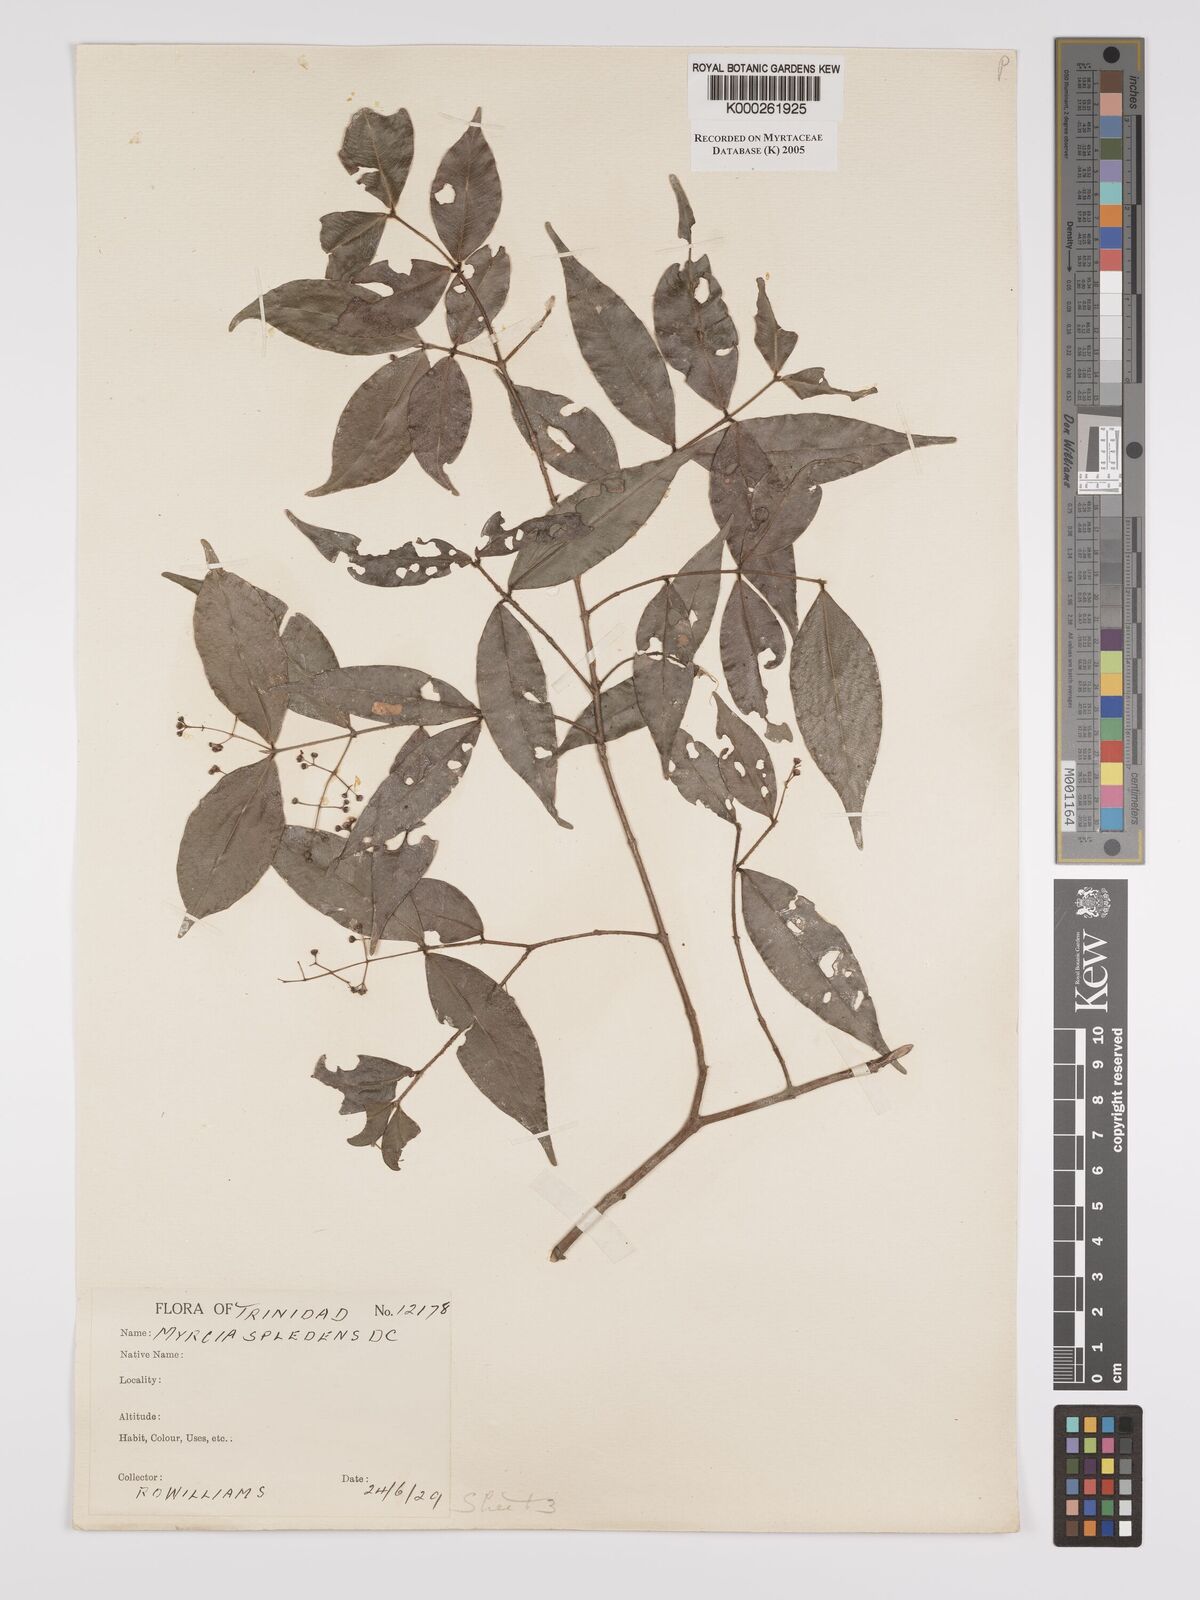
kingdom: Plantae
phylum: Tracheophyta
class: Magnoliopsida
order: Myrtales
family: Myrtaceae
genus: Myrcia
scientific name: Myrcia splendens
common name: Surinam cherry
